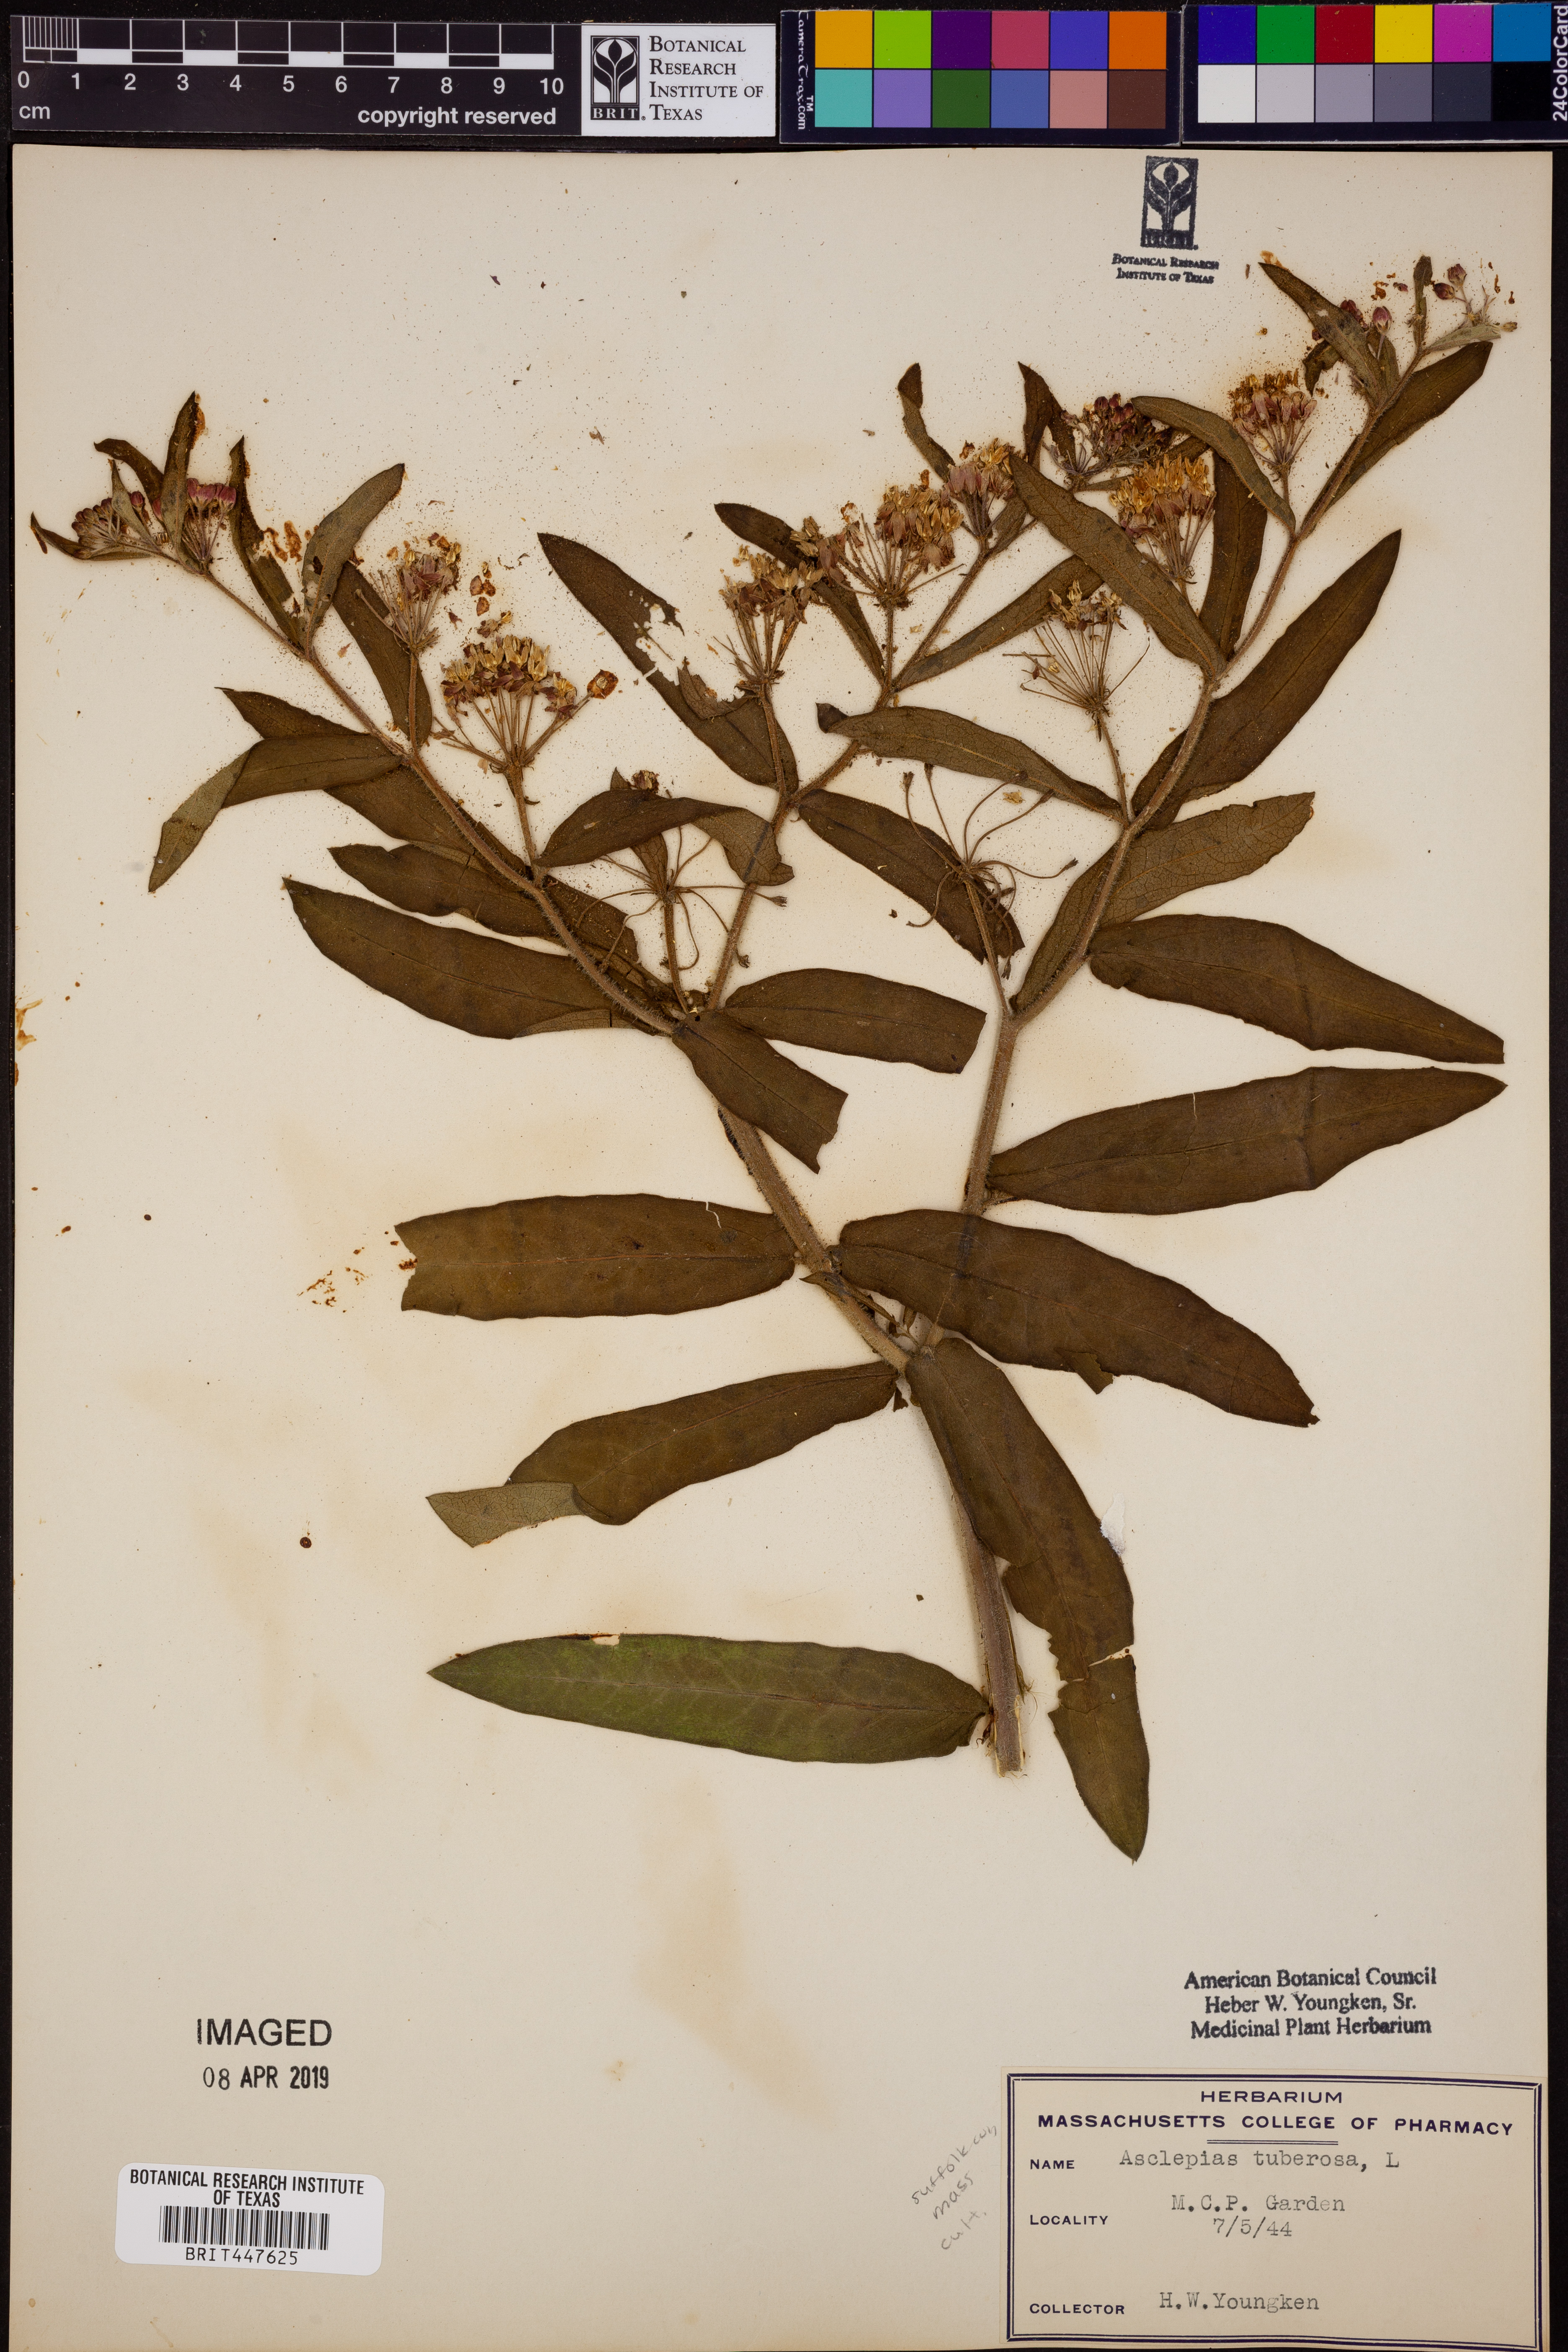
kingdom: Plantae
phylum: Tracheophyta
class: Magnoliopsida
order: Gentianales
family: Apocynaceae
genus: Asclepias
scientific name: Asclepias tuberosa
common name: Butterfly milkweed
